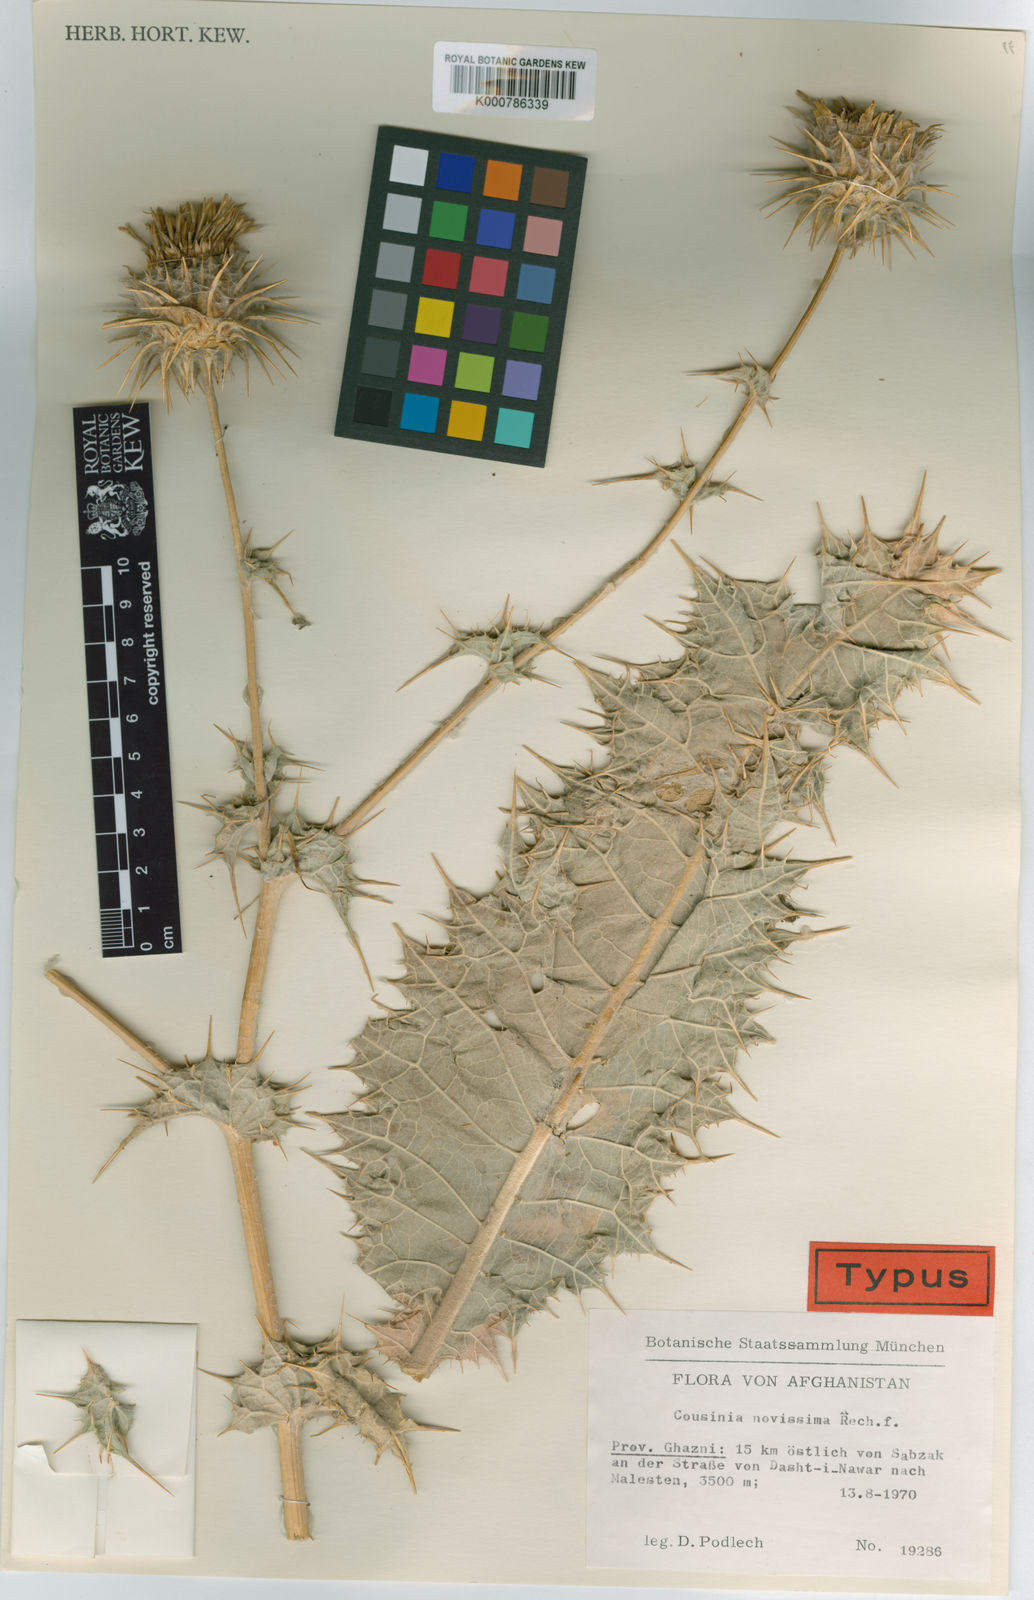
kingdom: Plantae
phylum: Tracheophyta
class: Magnoliopsida
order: Asterales
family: Asteraceae
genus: Cousinia
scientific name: Cousinia novissima
